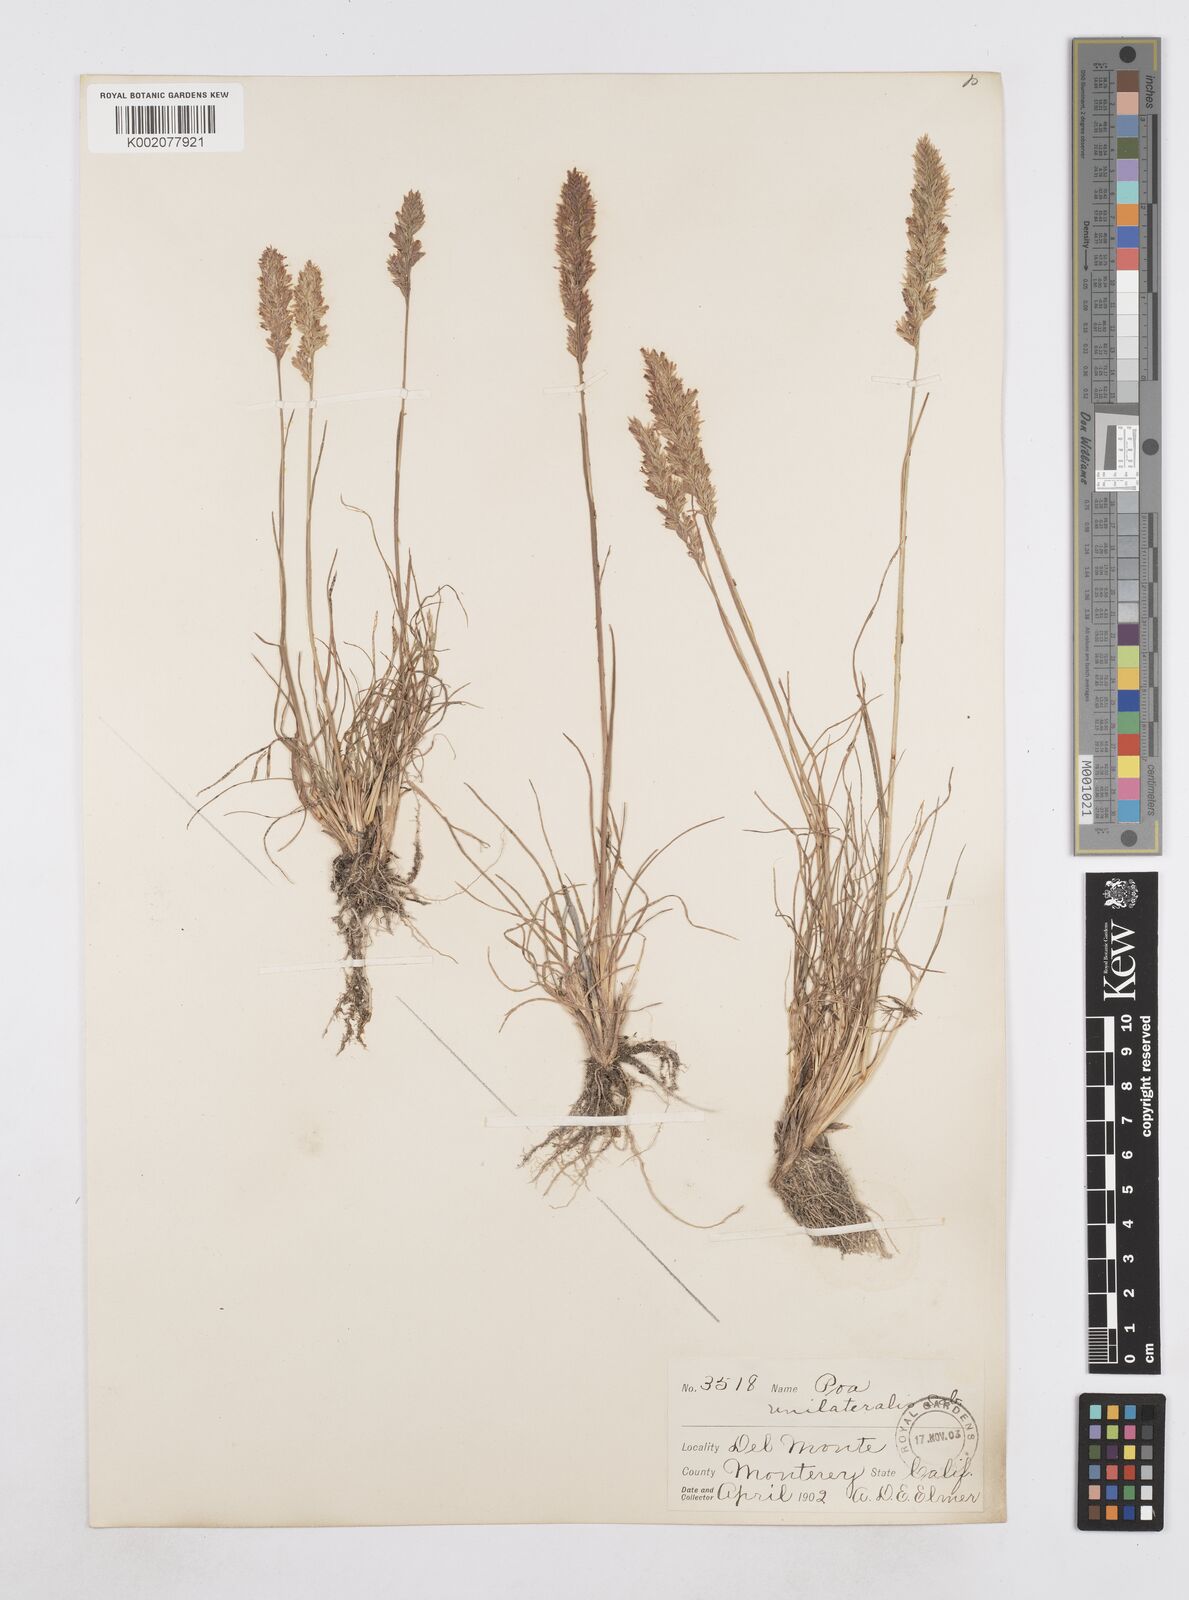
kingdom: Plantae
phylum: Tracheophyta
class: Liliopsida
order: Poales
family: Poaceae
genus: Poa
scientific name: Poa unilateralis
